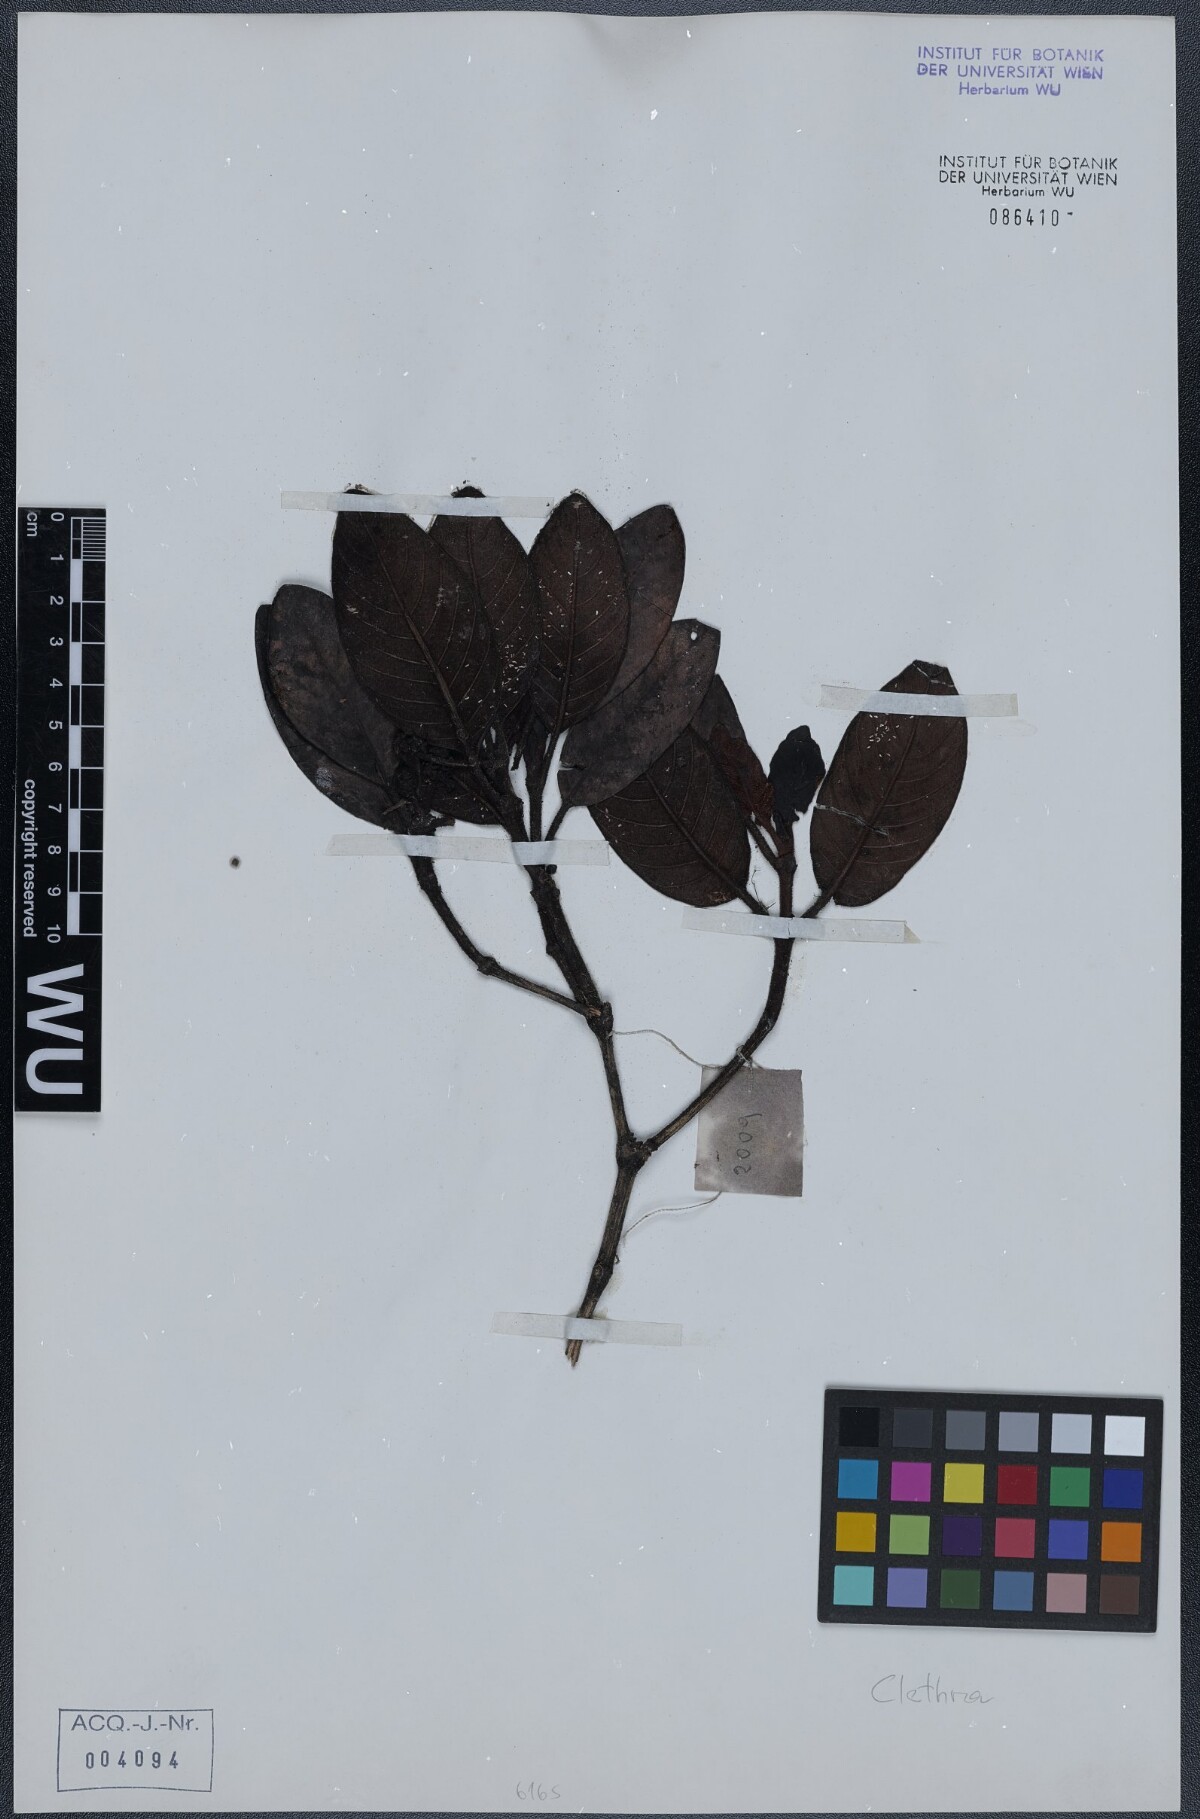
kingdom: Plantae
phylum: Tracheophyta
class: Magnoliopsida
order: Ericales
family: Clethraceae
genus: Clethra
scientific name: Clethra
